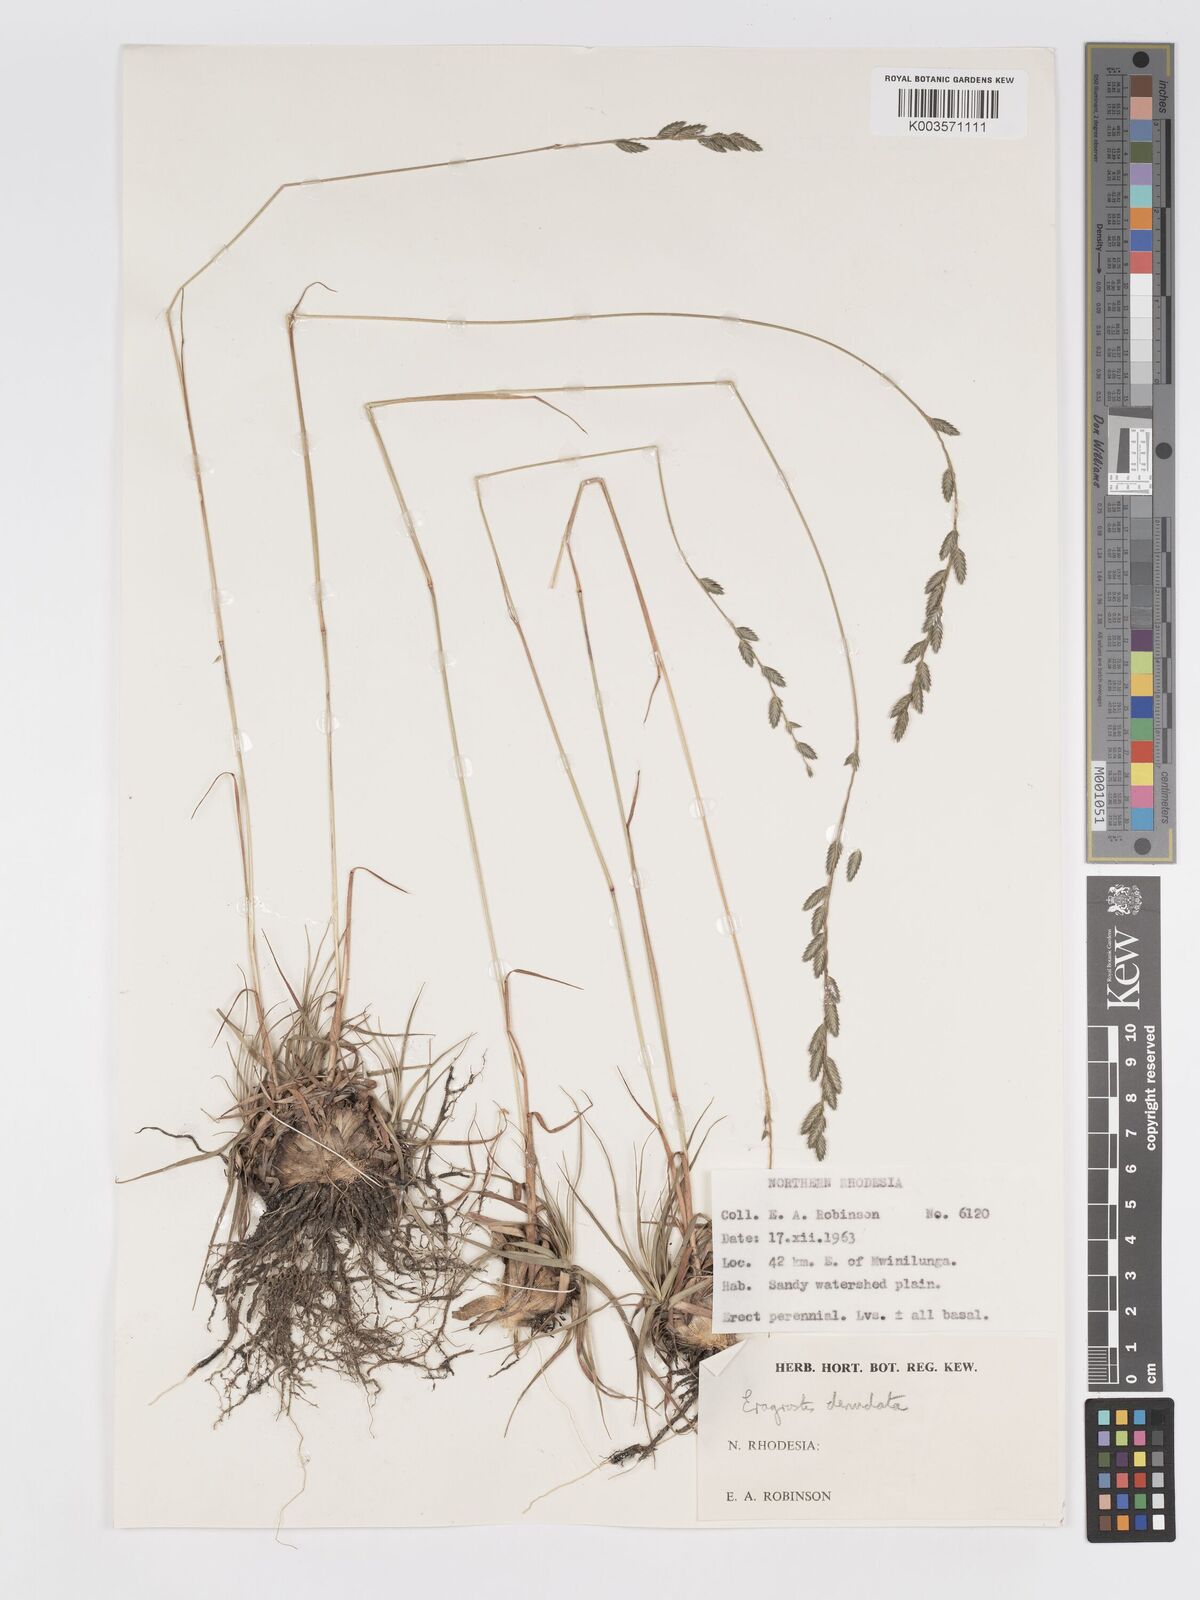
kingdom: Plantae
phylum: Tracheophyta
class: Liliopsida
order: Poales
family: Poaceae
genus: Eragrostis
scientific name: Eragrostis nindensis
